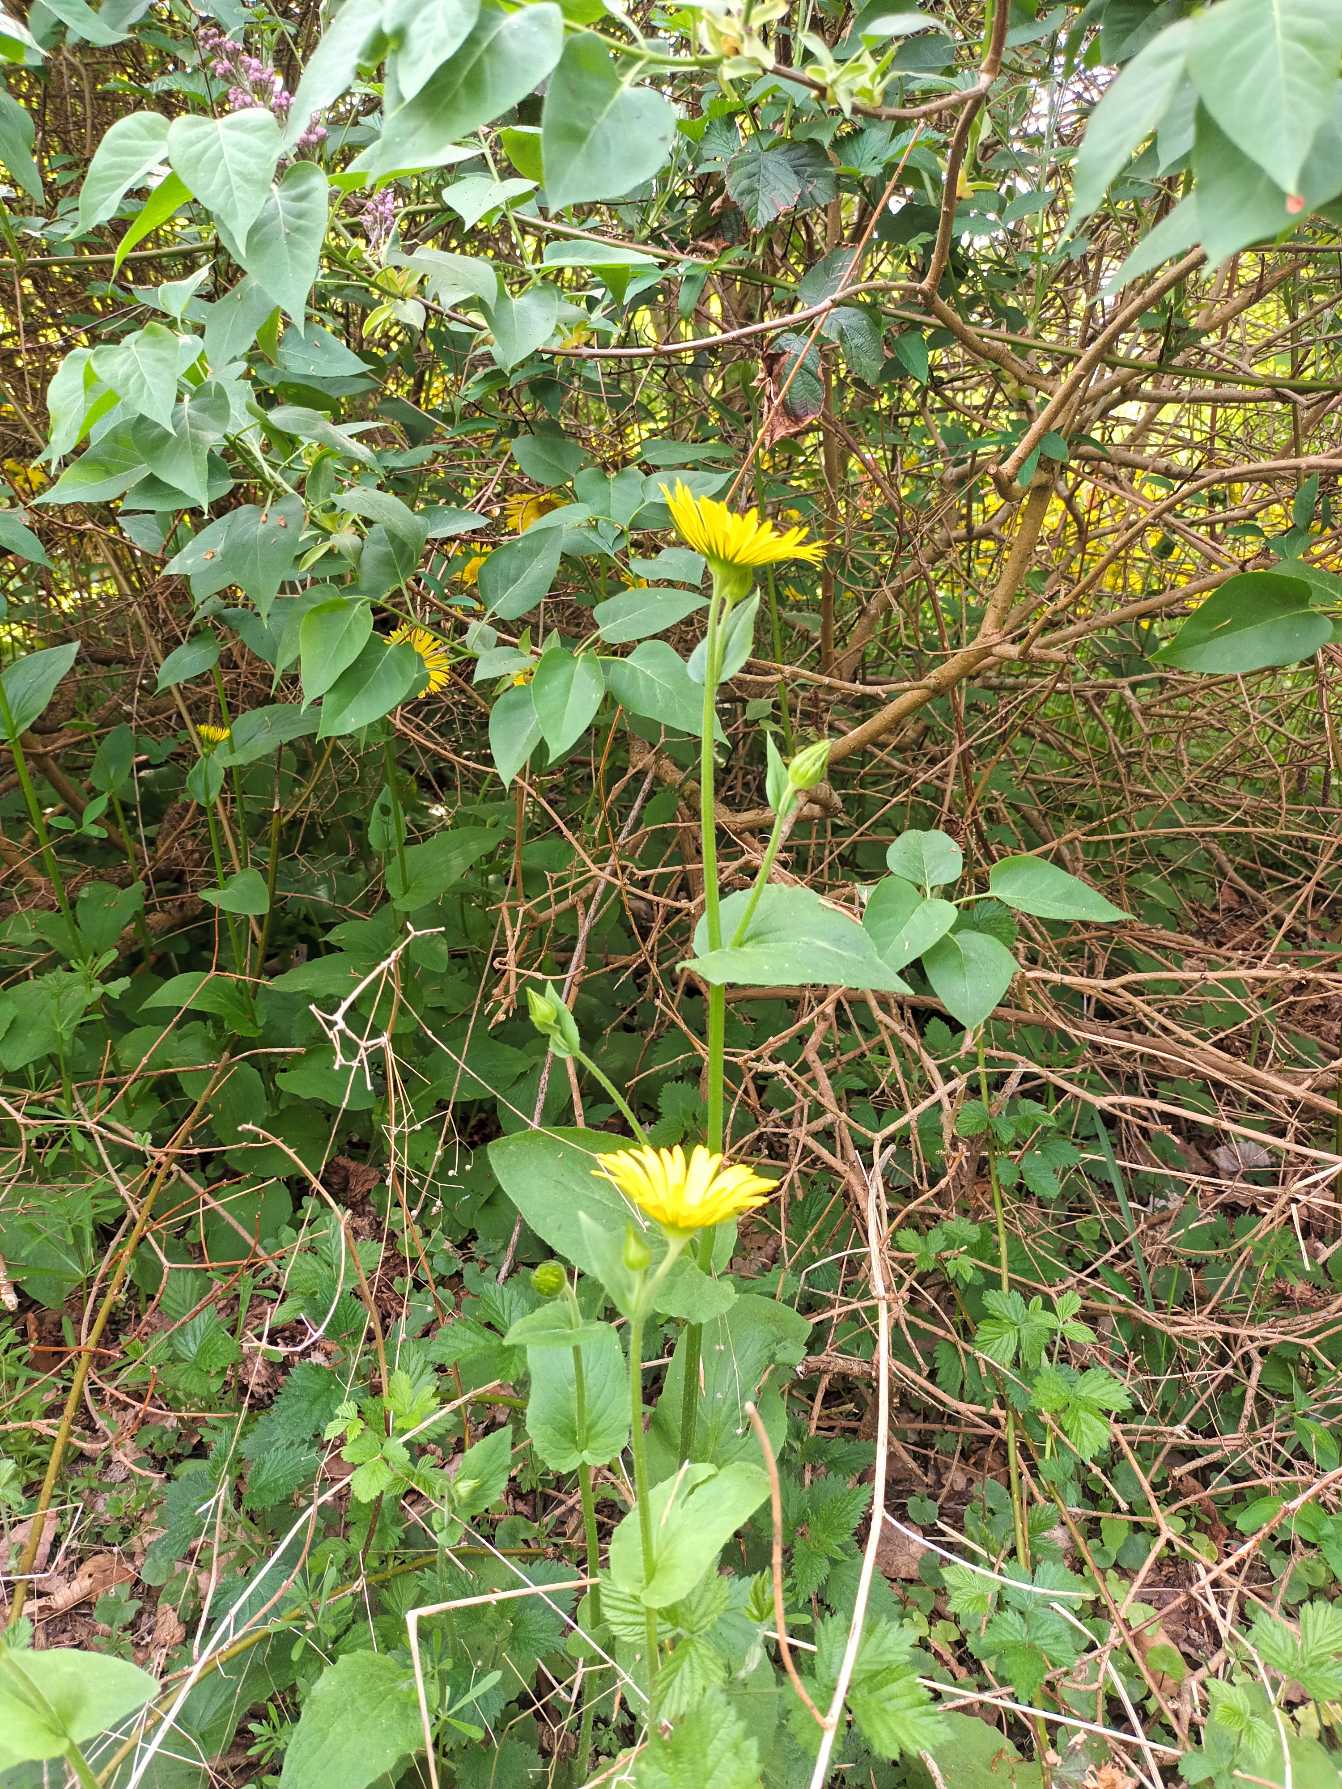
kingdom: Plantae
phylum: Tracheophyta
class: Magnoliopsida
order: Asterales
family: Asteraceae
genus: Doronicum
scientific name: Doronicum pardalianches
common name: Hjertebladet gemserod
